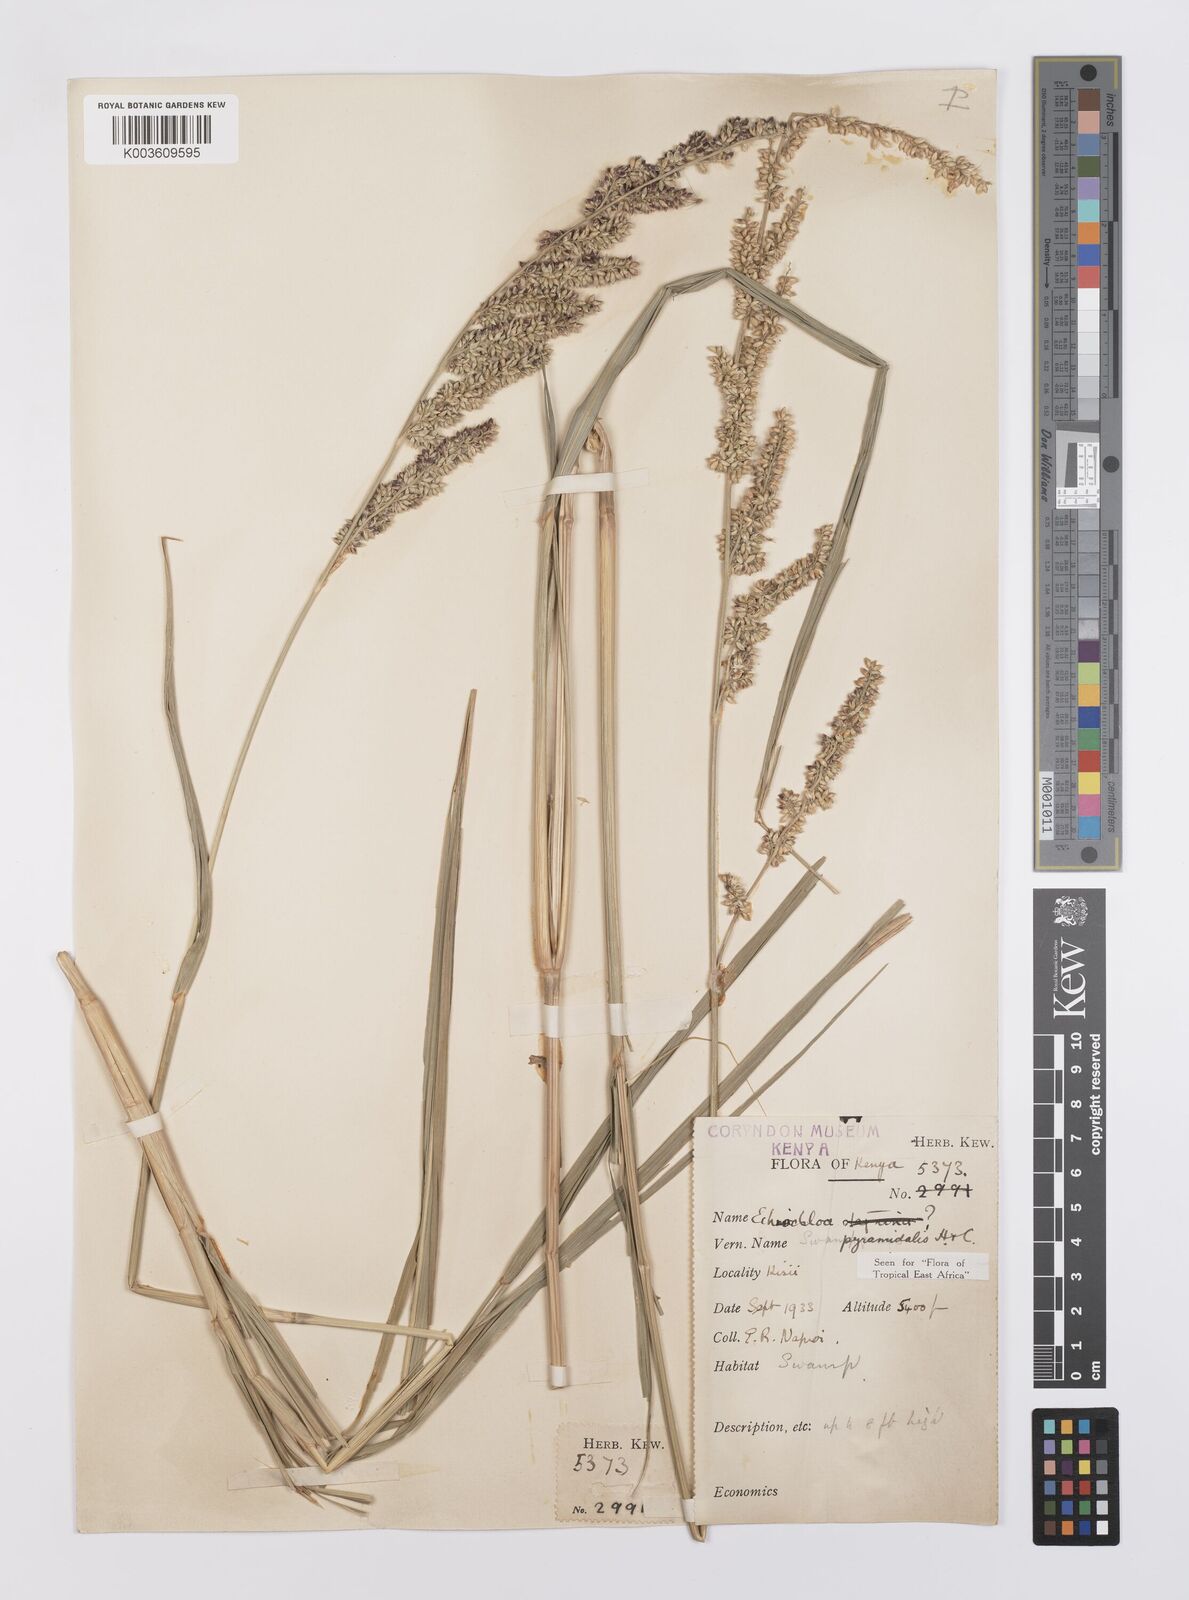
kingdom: Plantae
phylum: Tracheophyta
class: Liliopsida
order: Poales
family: Poaceae
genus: Echinochloa
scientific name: Echinochloa pyramidalis
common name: Antelope grass
